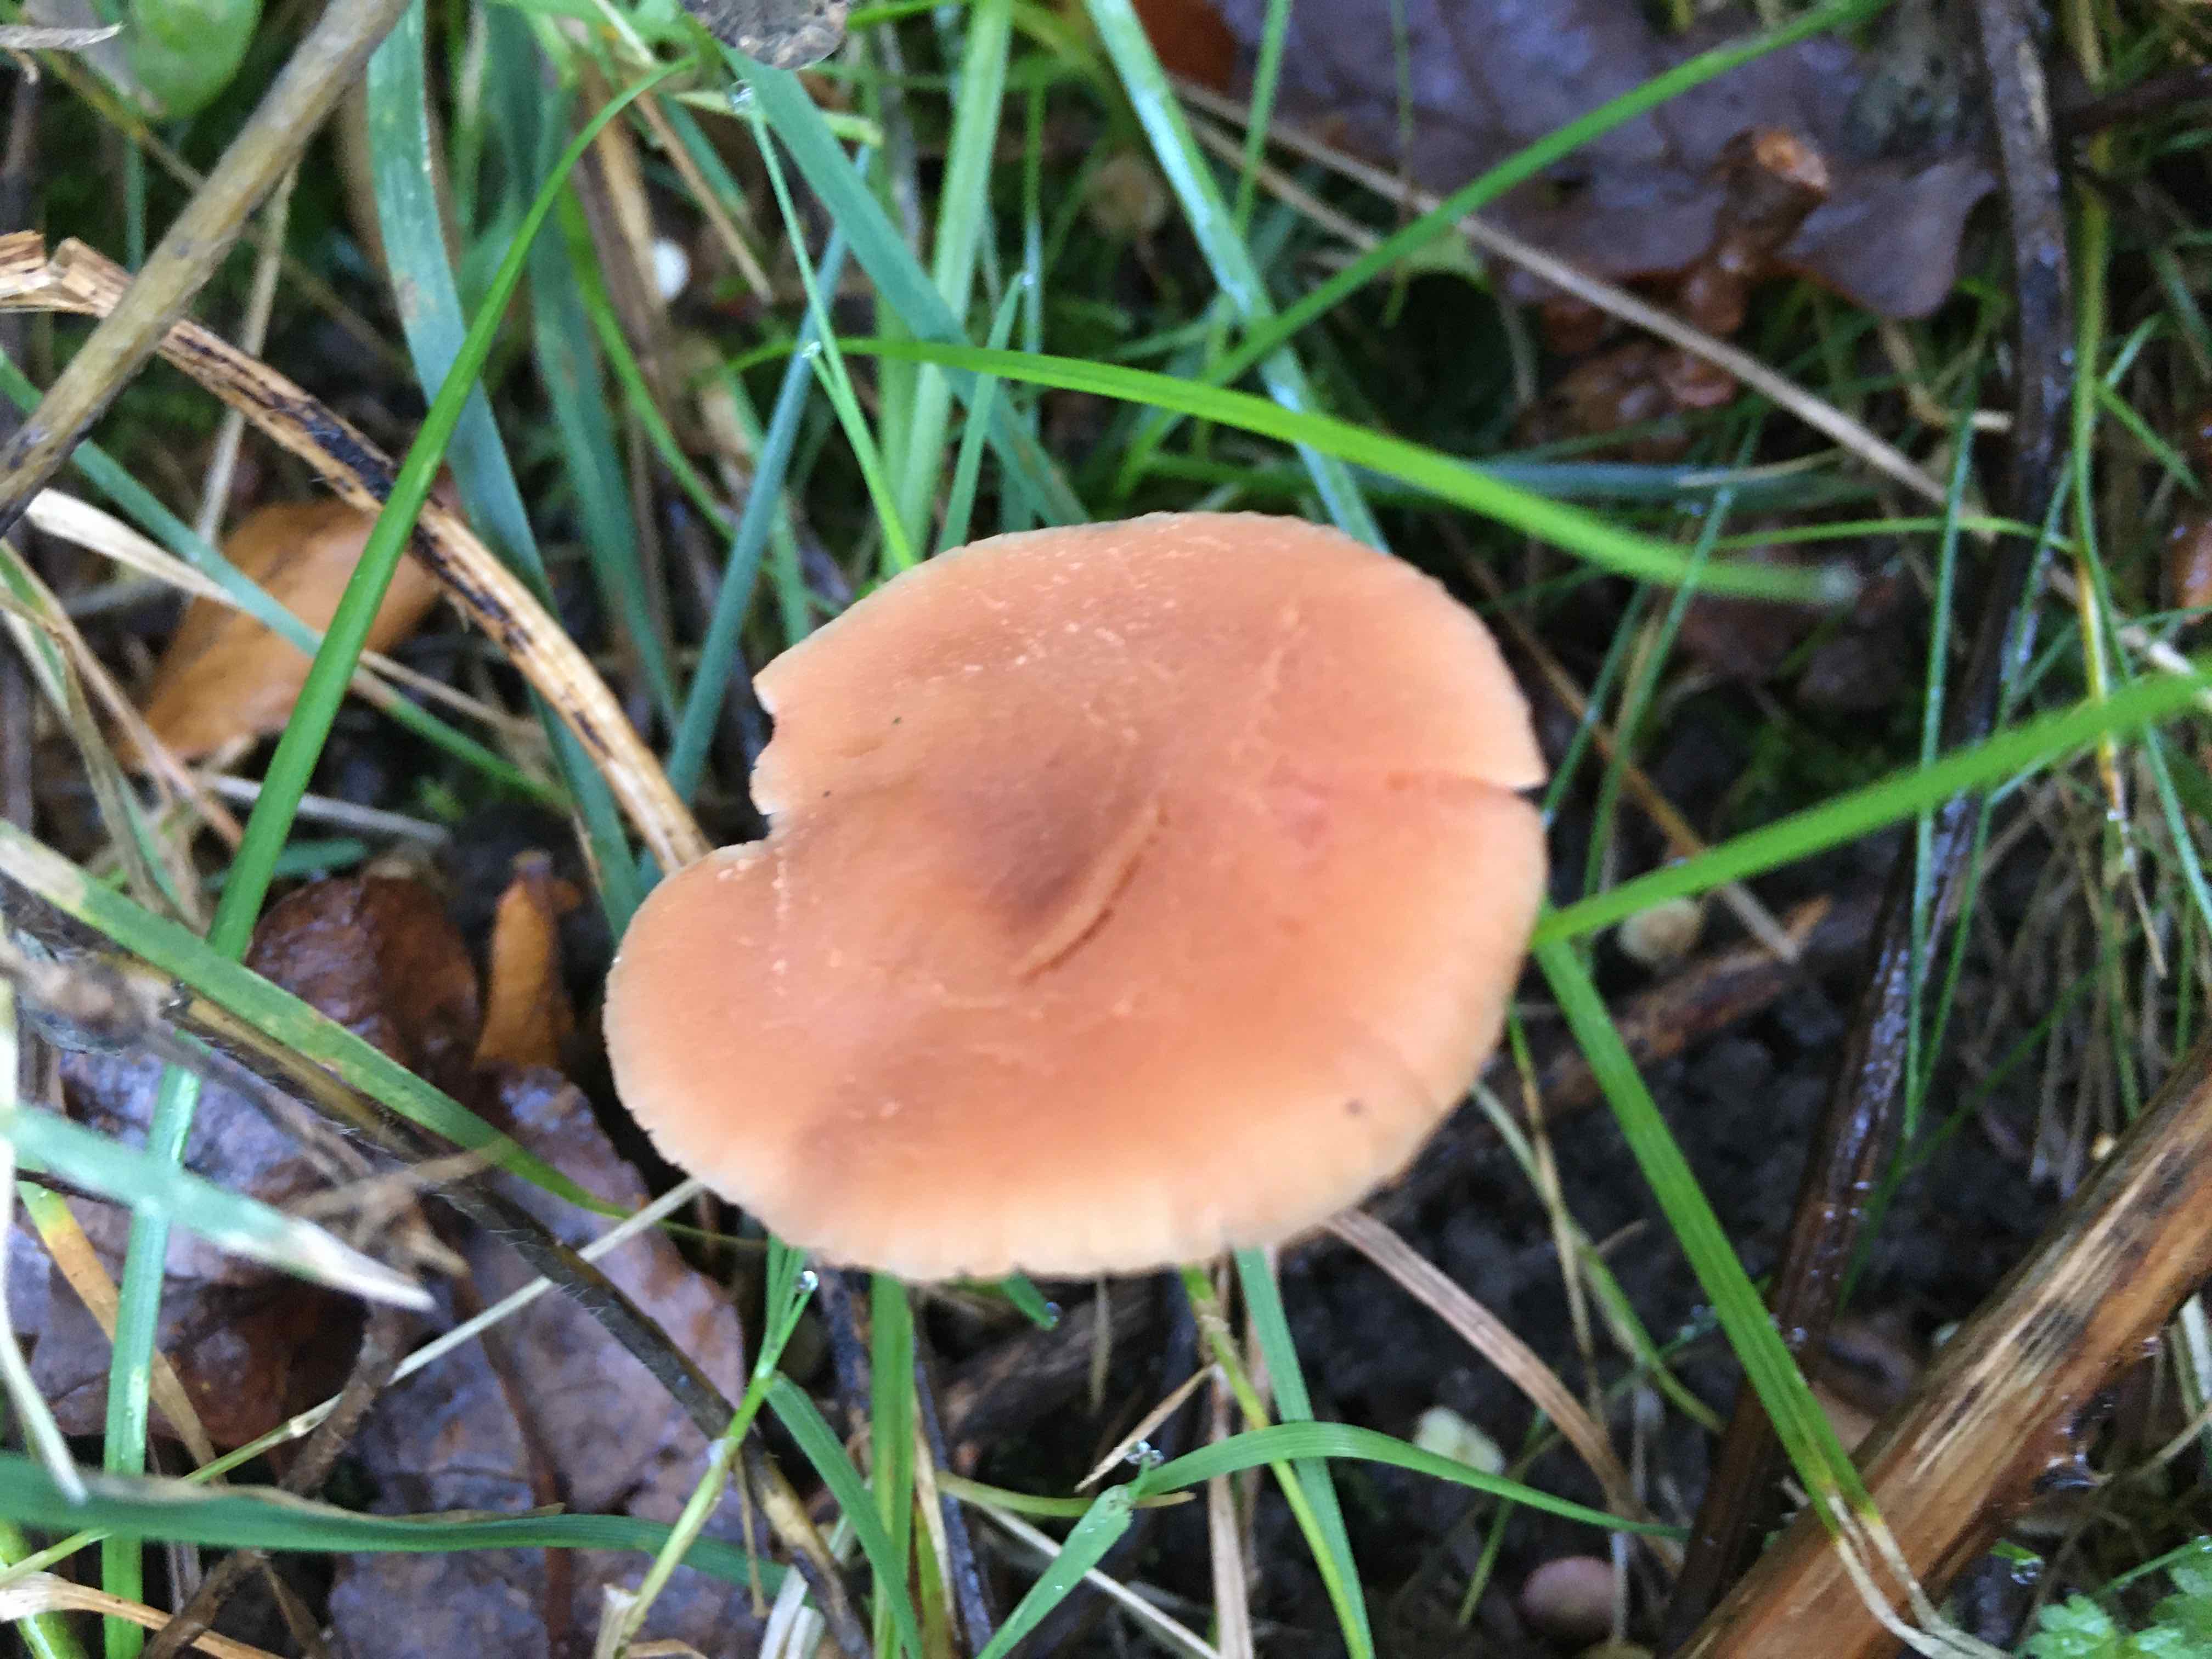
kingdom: Fungi
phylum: Basidiomycota
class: Agaricomycetes
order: Agaricales
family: Hydnangiaceae
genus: Laccaria
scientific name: Laccaria
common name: ametysthat
